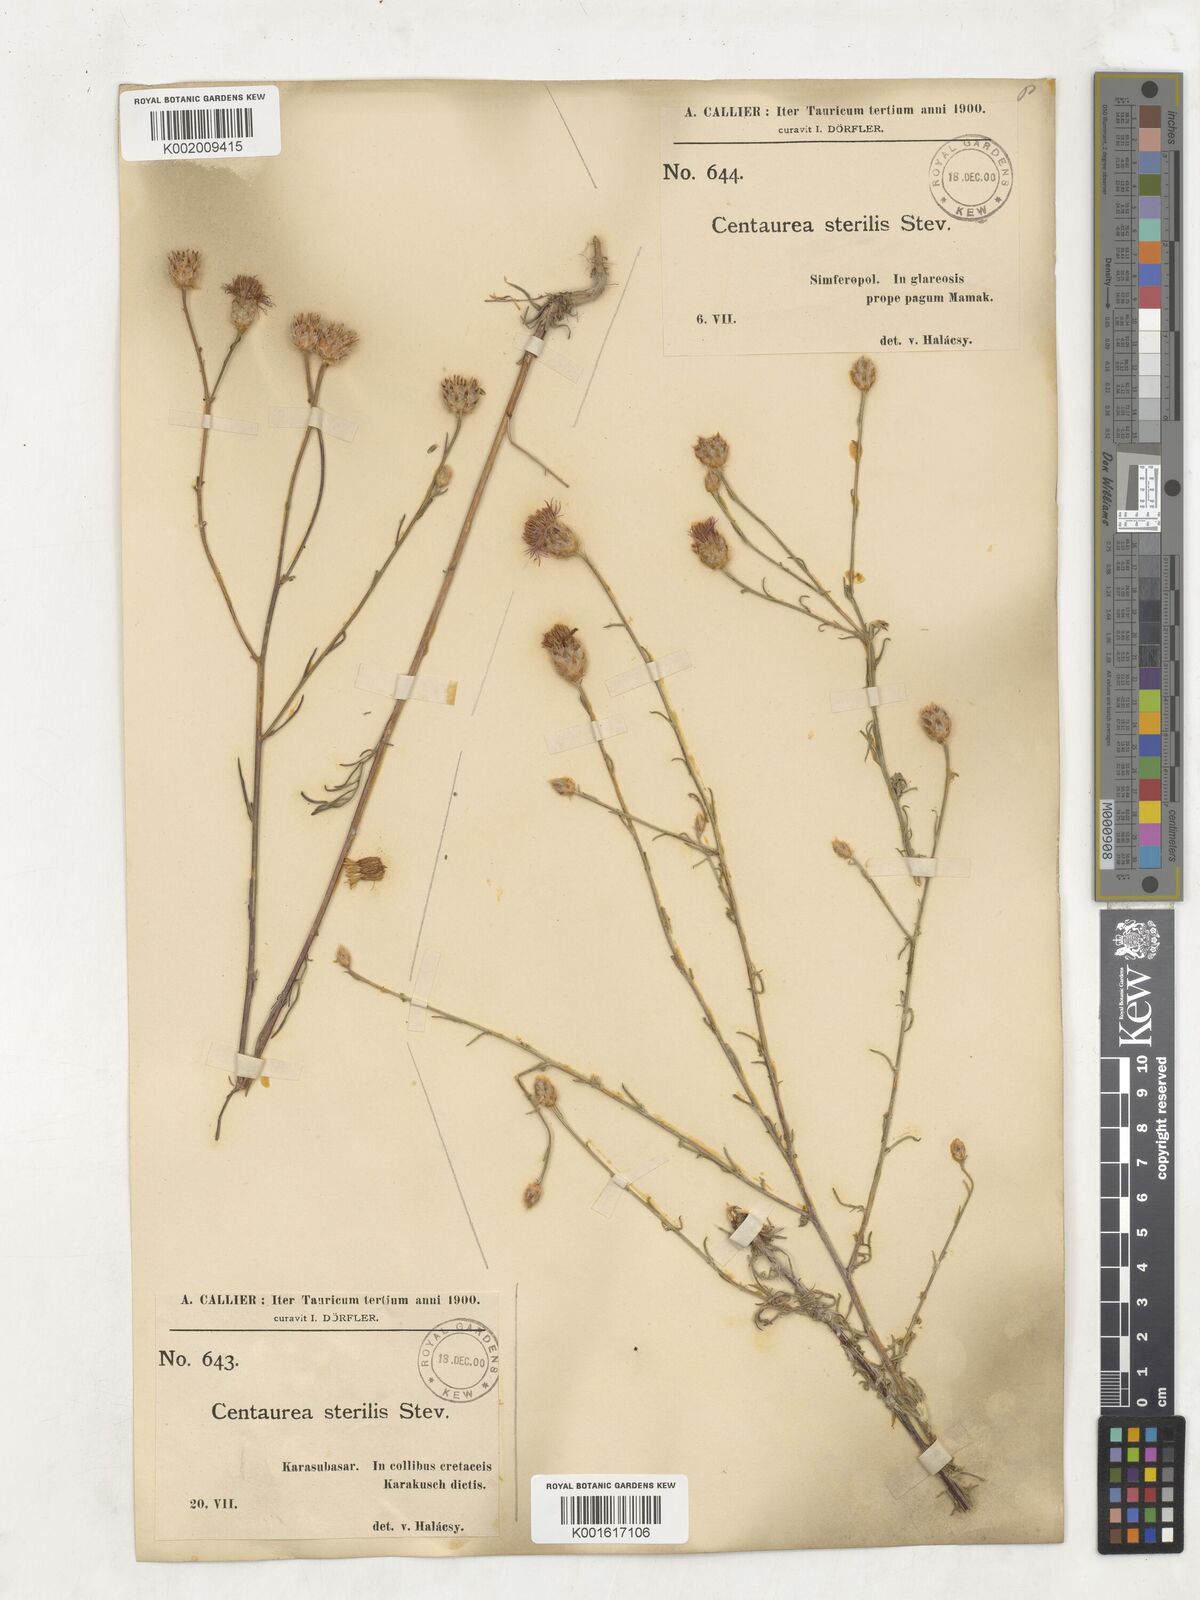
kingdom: Plantae
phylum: Tracheophyta
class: Magnoliopsida
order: Asterales
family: Asteraceae
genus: Centaurea
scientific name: Centaurea sterilis
